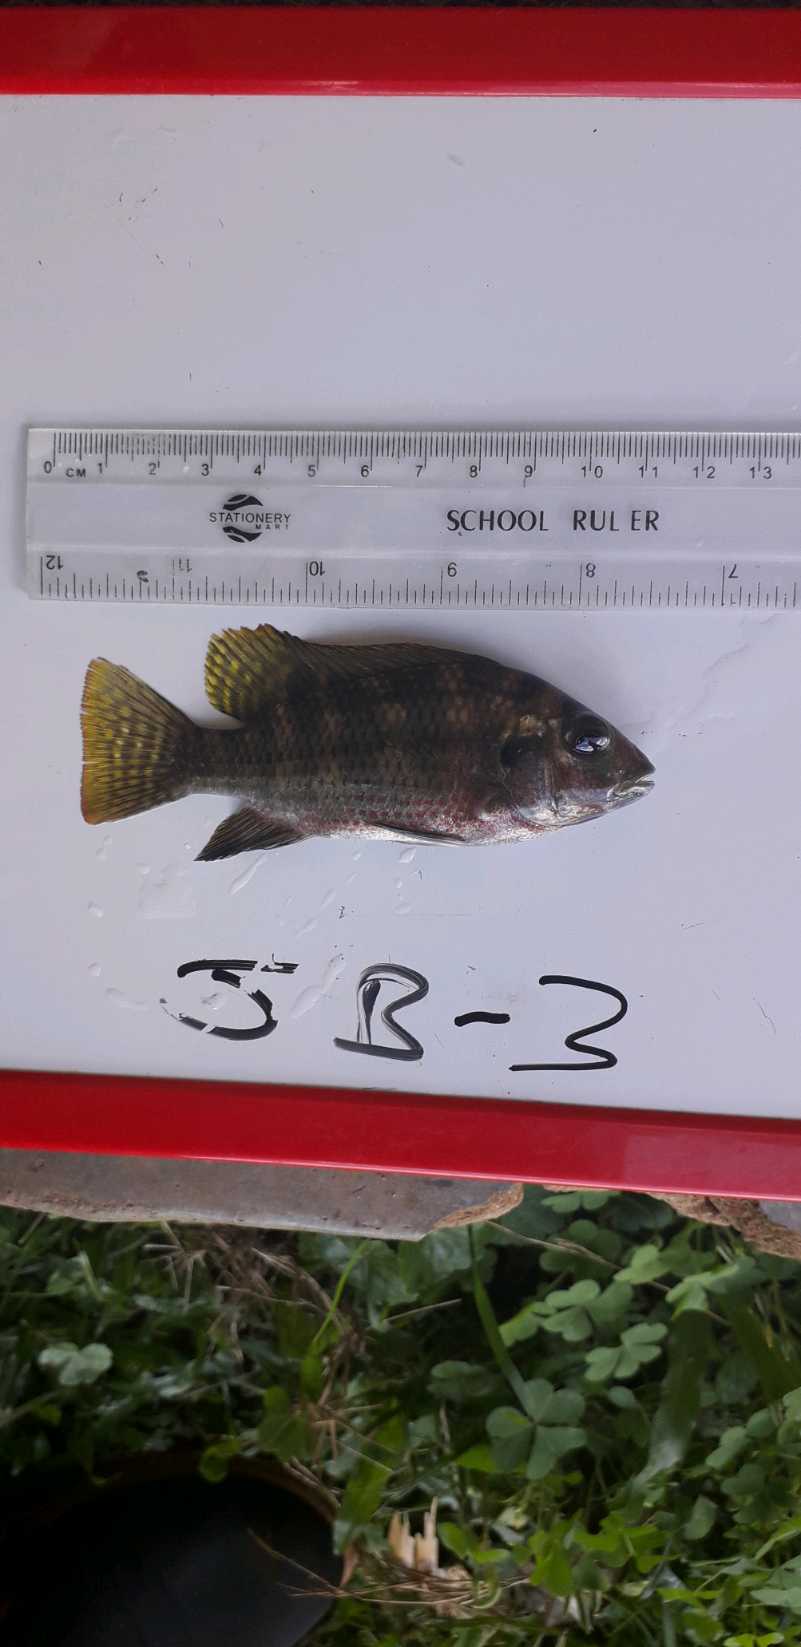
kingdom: Animalia
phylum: Chordata
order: Perciformes
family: Cichlidae
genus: Coptodon
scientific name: Coptodon zillii
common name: Redbelly tilapia
